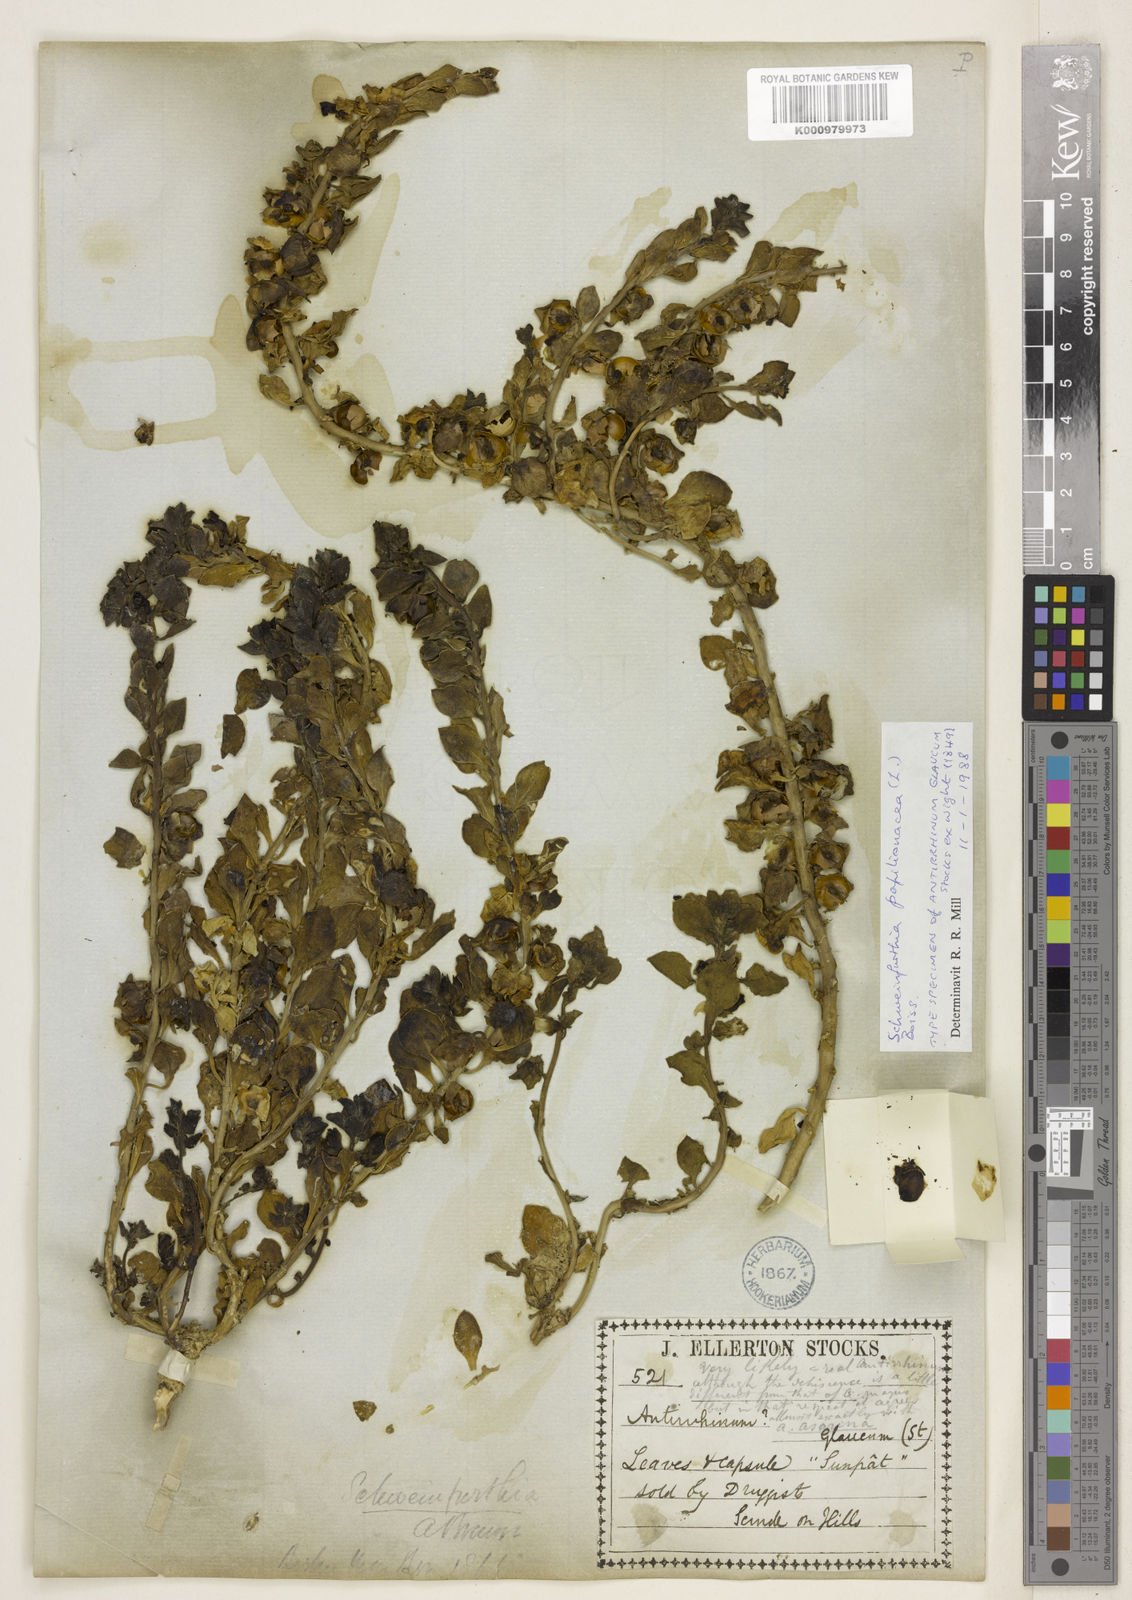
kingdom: Plantae
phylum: Tracheophyta
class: Magnoliopsida
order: Lamiales
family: Plantaginaceae
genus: Schweinfurthia
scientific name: Schweinfurthia papilionacea
